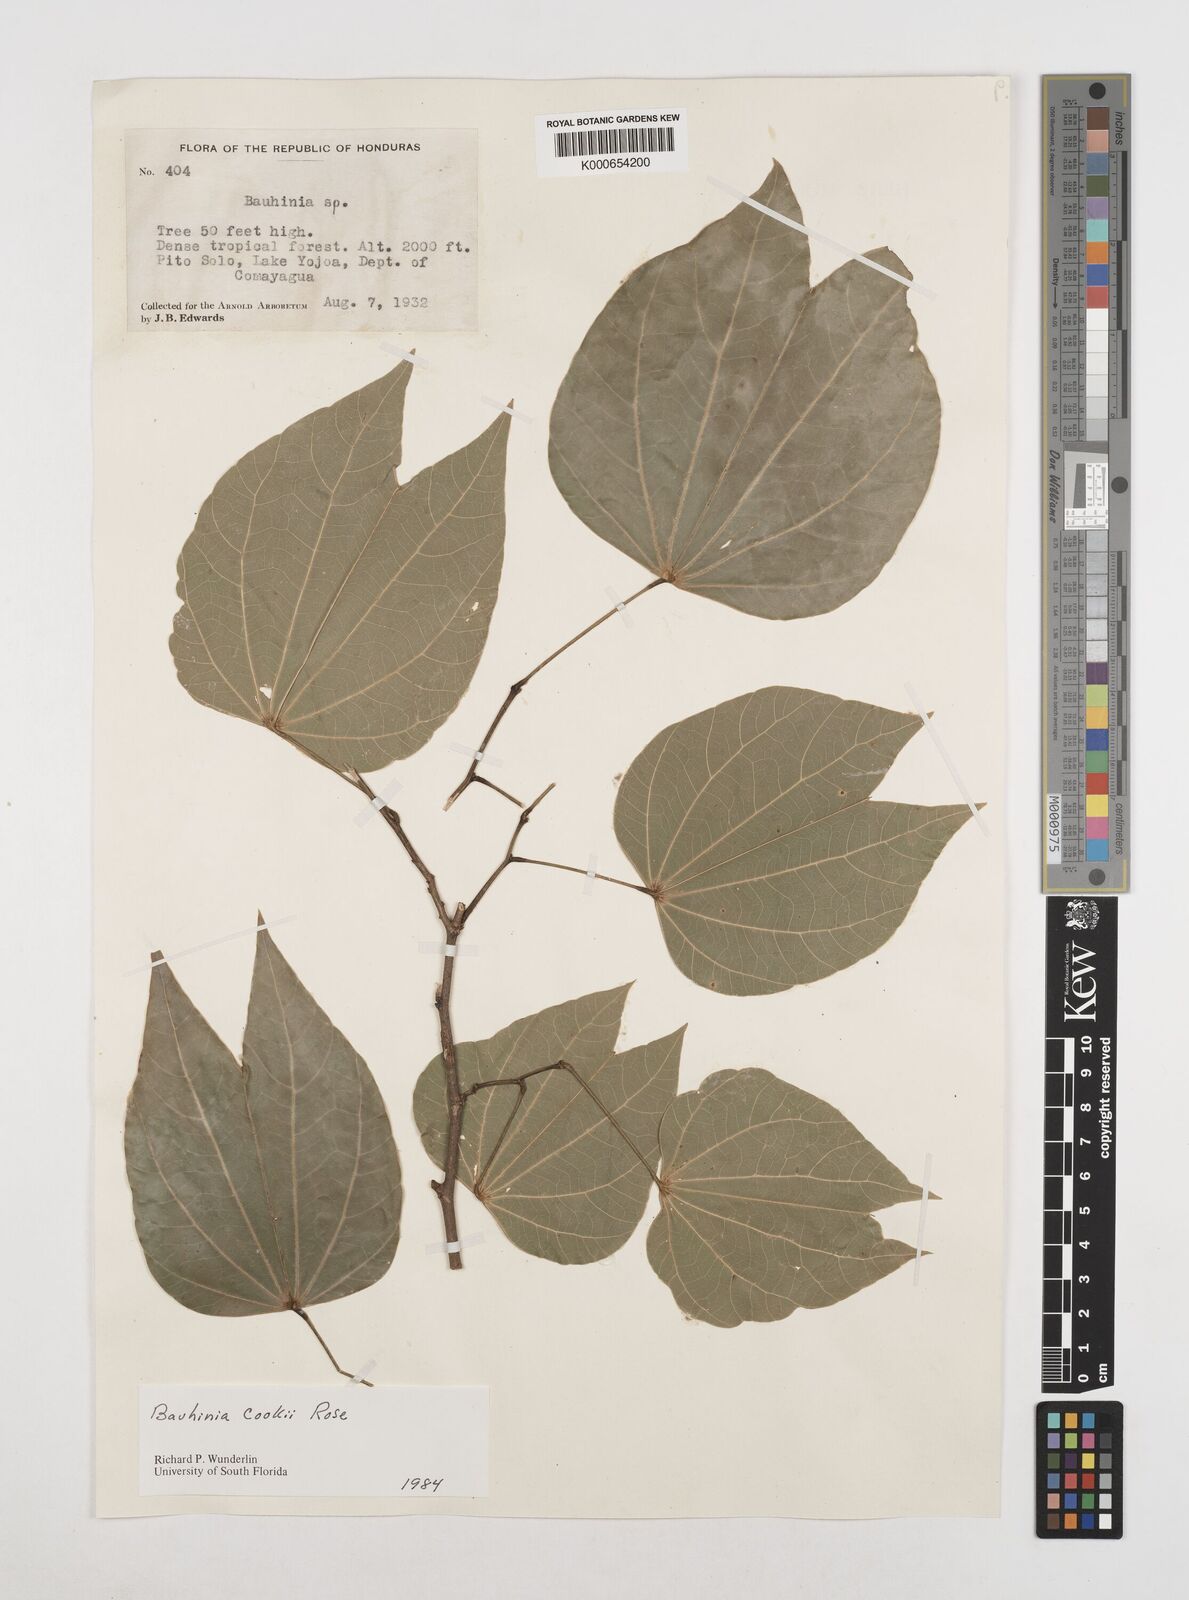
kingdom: Plantae
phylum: Tracheophyta
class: Magnoliopsida
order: Fabales
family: Fabaceae
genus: Bauhinia
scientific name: Bauhinia cookii
